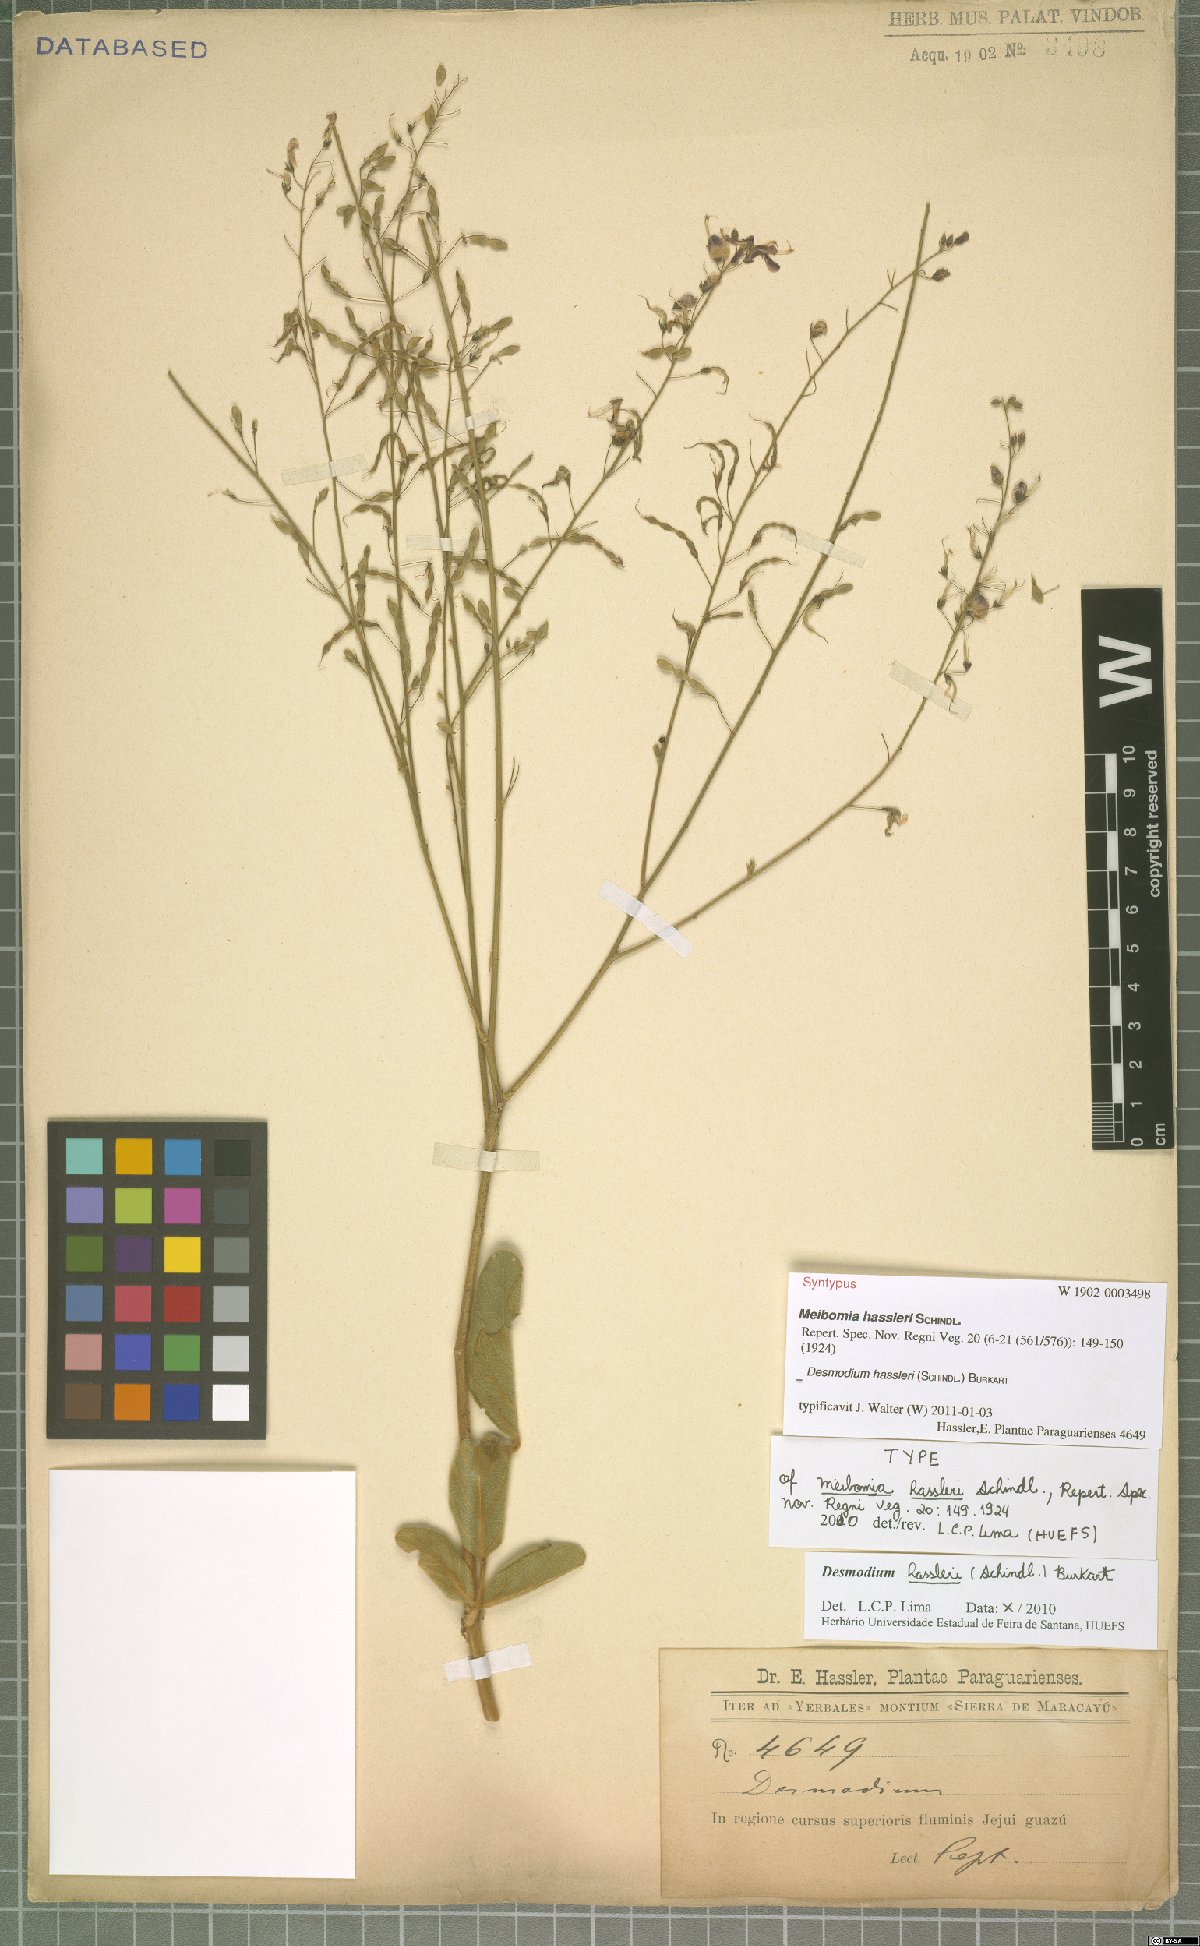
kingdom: Plantae
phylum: Tracheophyta
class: Magnoliopsida
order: Fabales
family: Fabaceae
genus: Desmodium
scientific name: Desmodium hassleri
